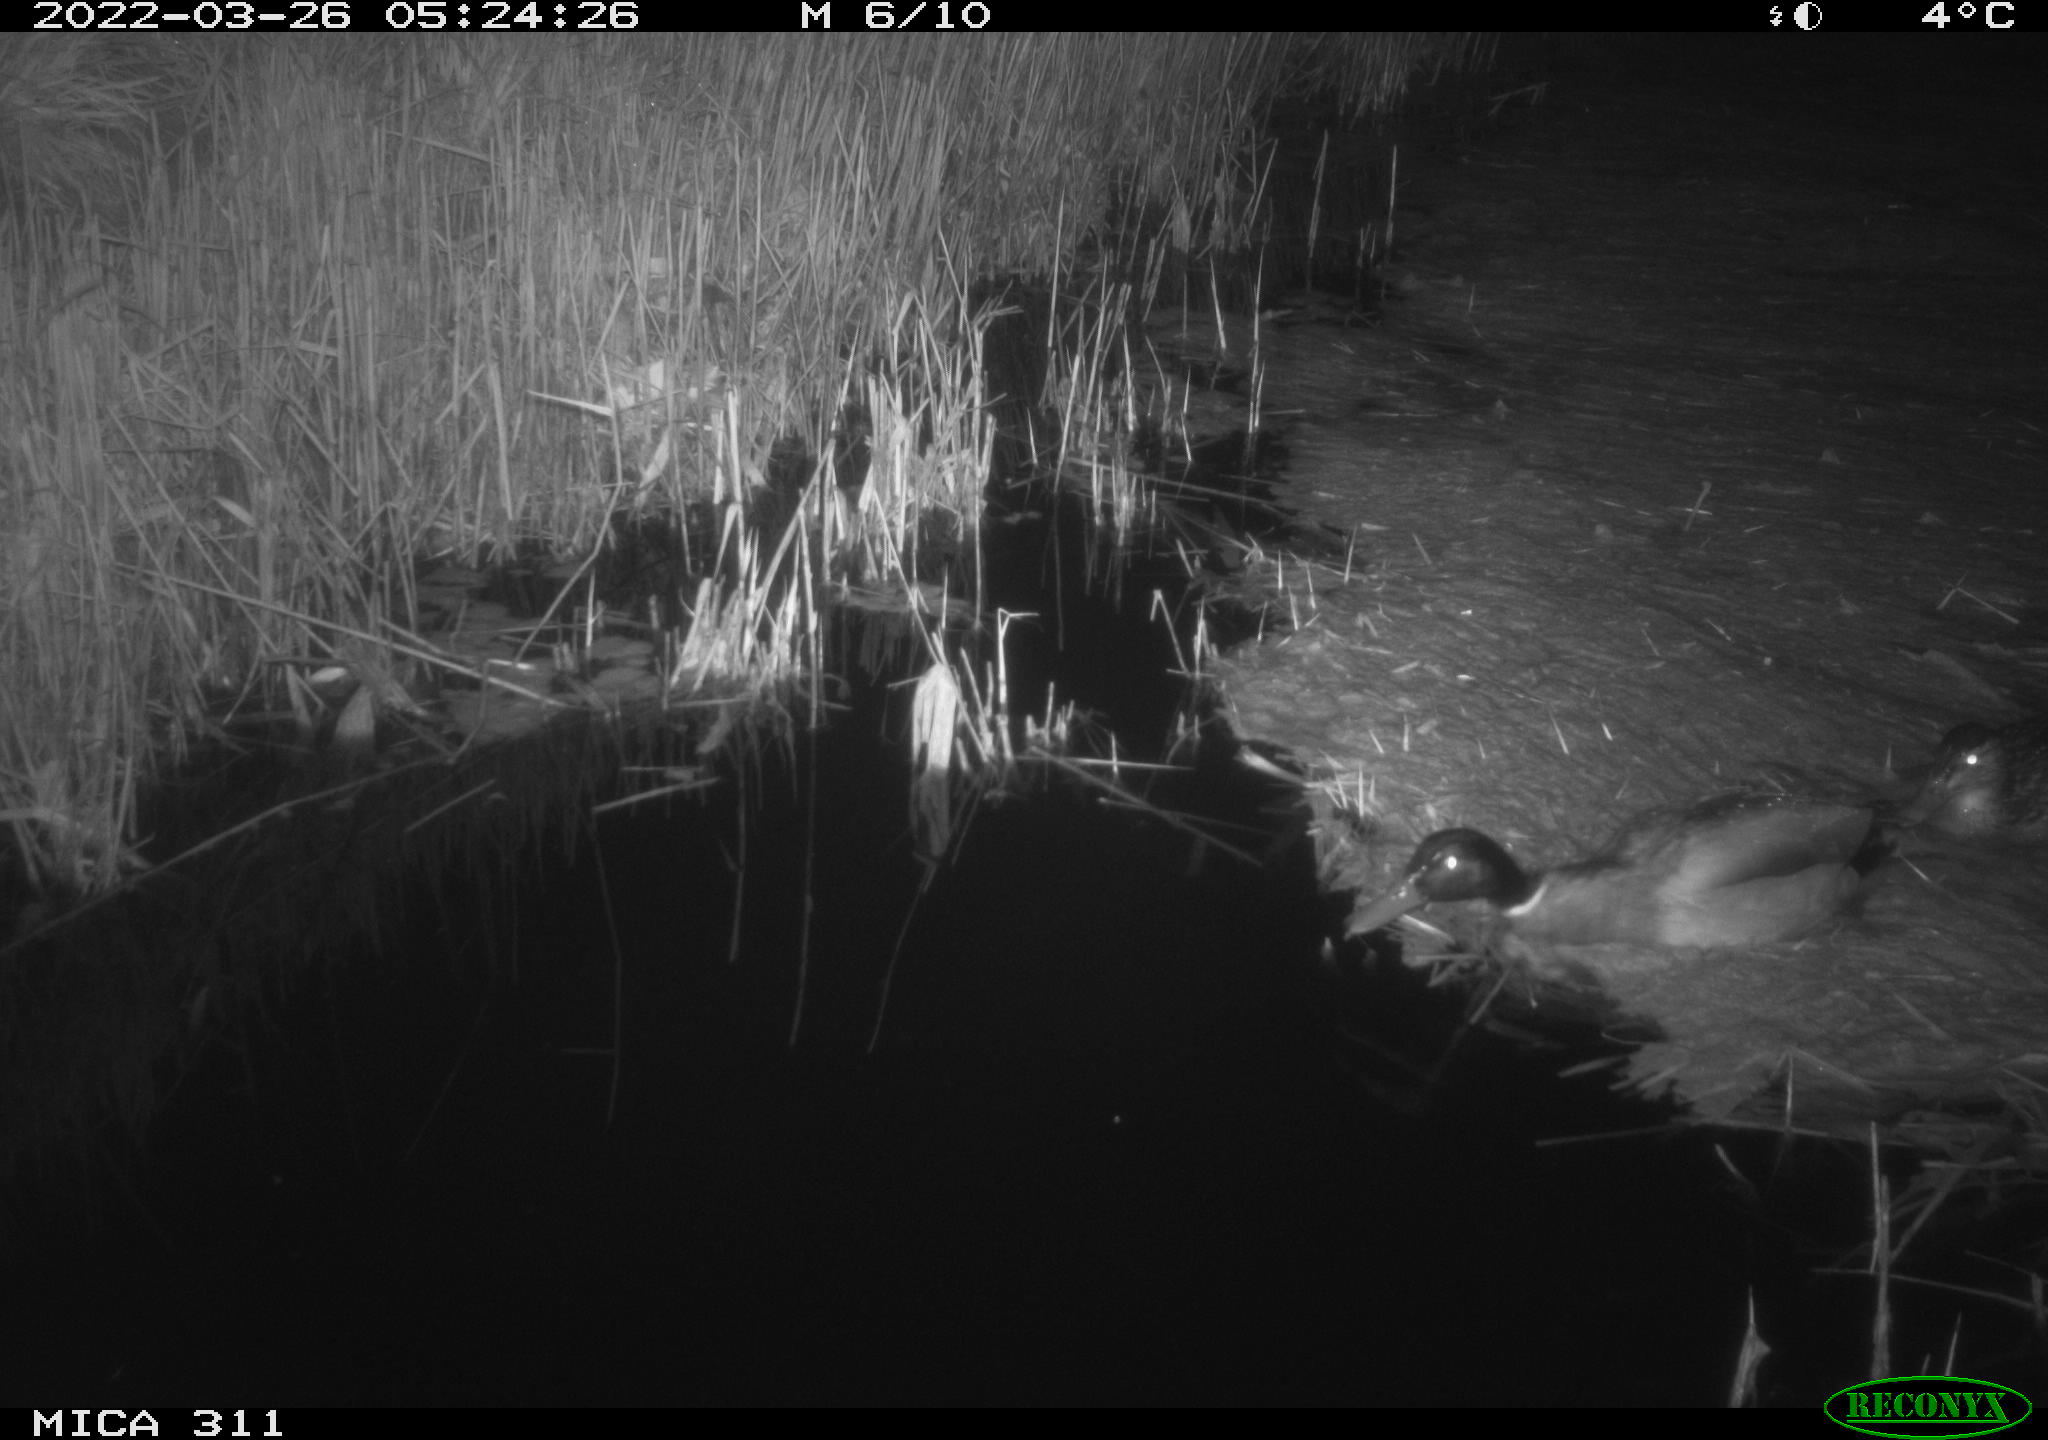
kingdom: Animalia
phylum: Chordata
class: Aves
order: Anseriformes
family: Anatidae
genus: Anas
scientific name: Anas platyrhynchos
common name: Mallard
